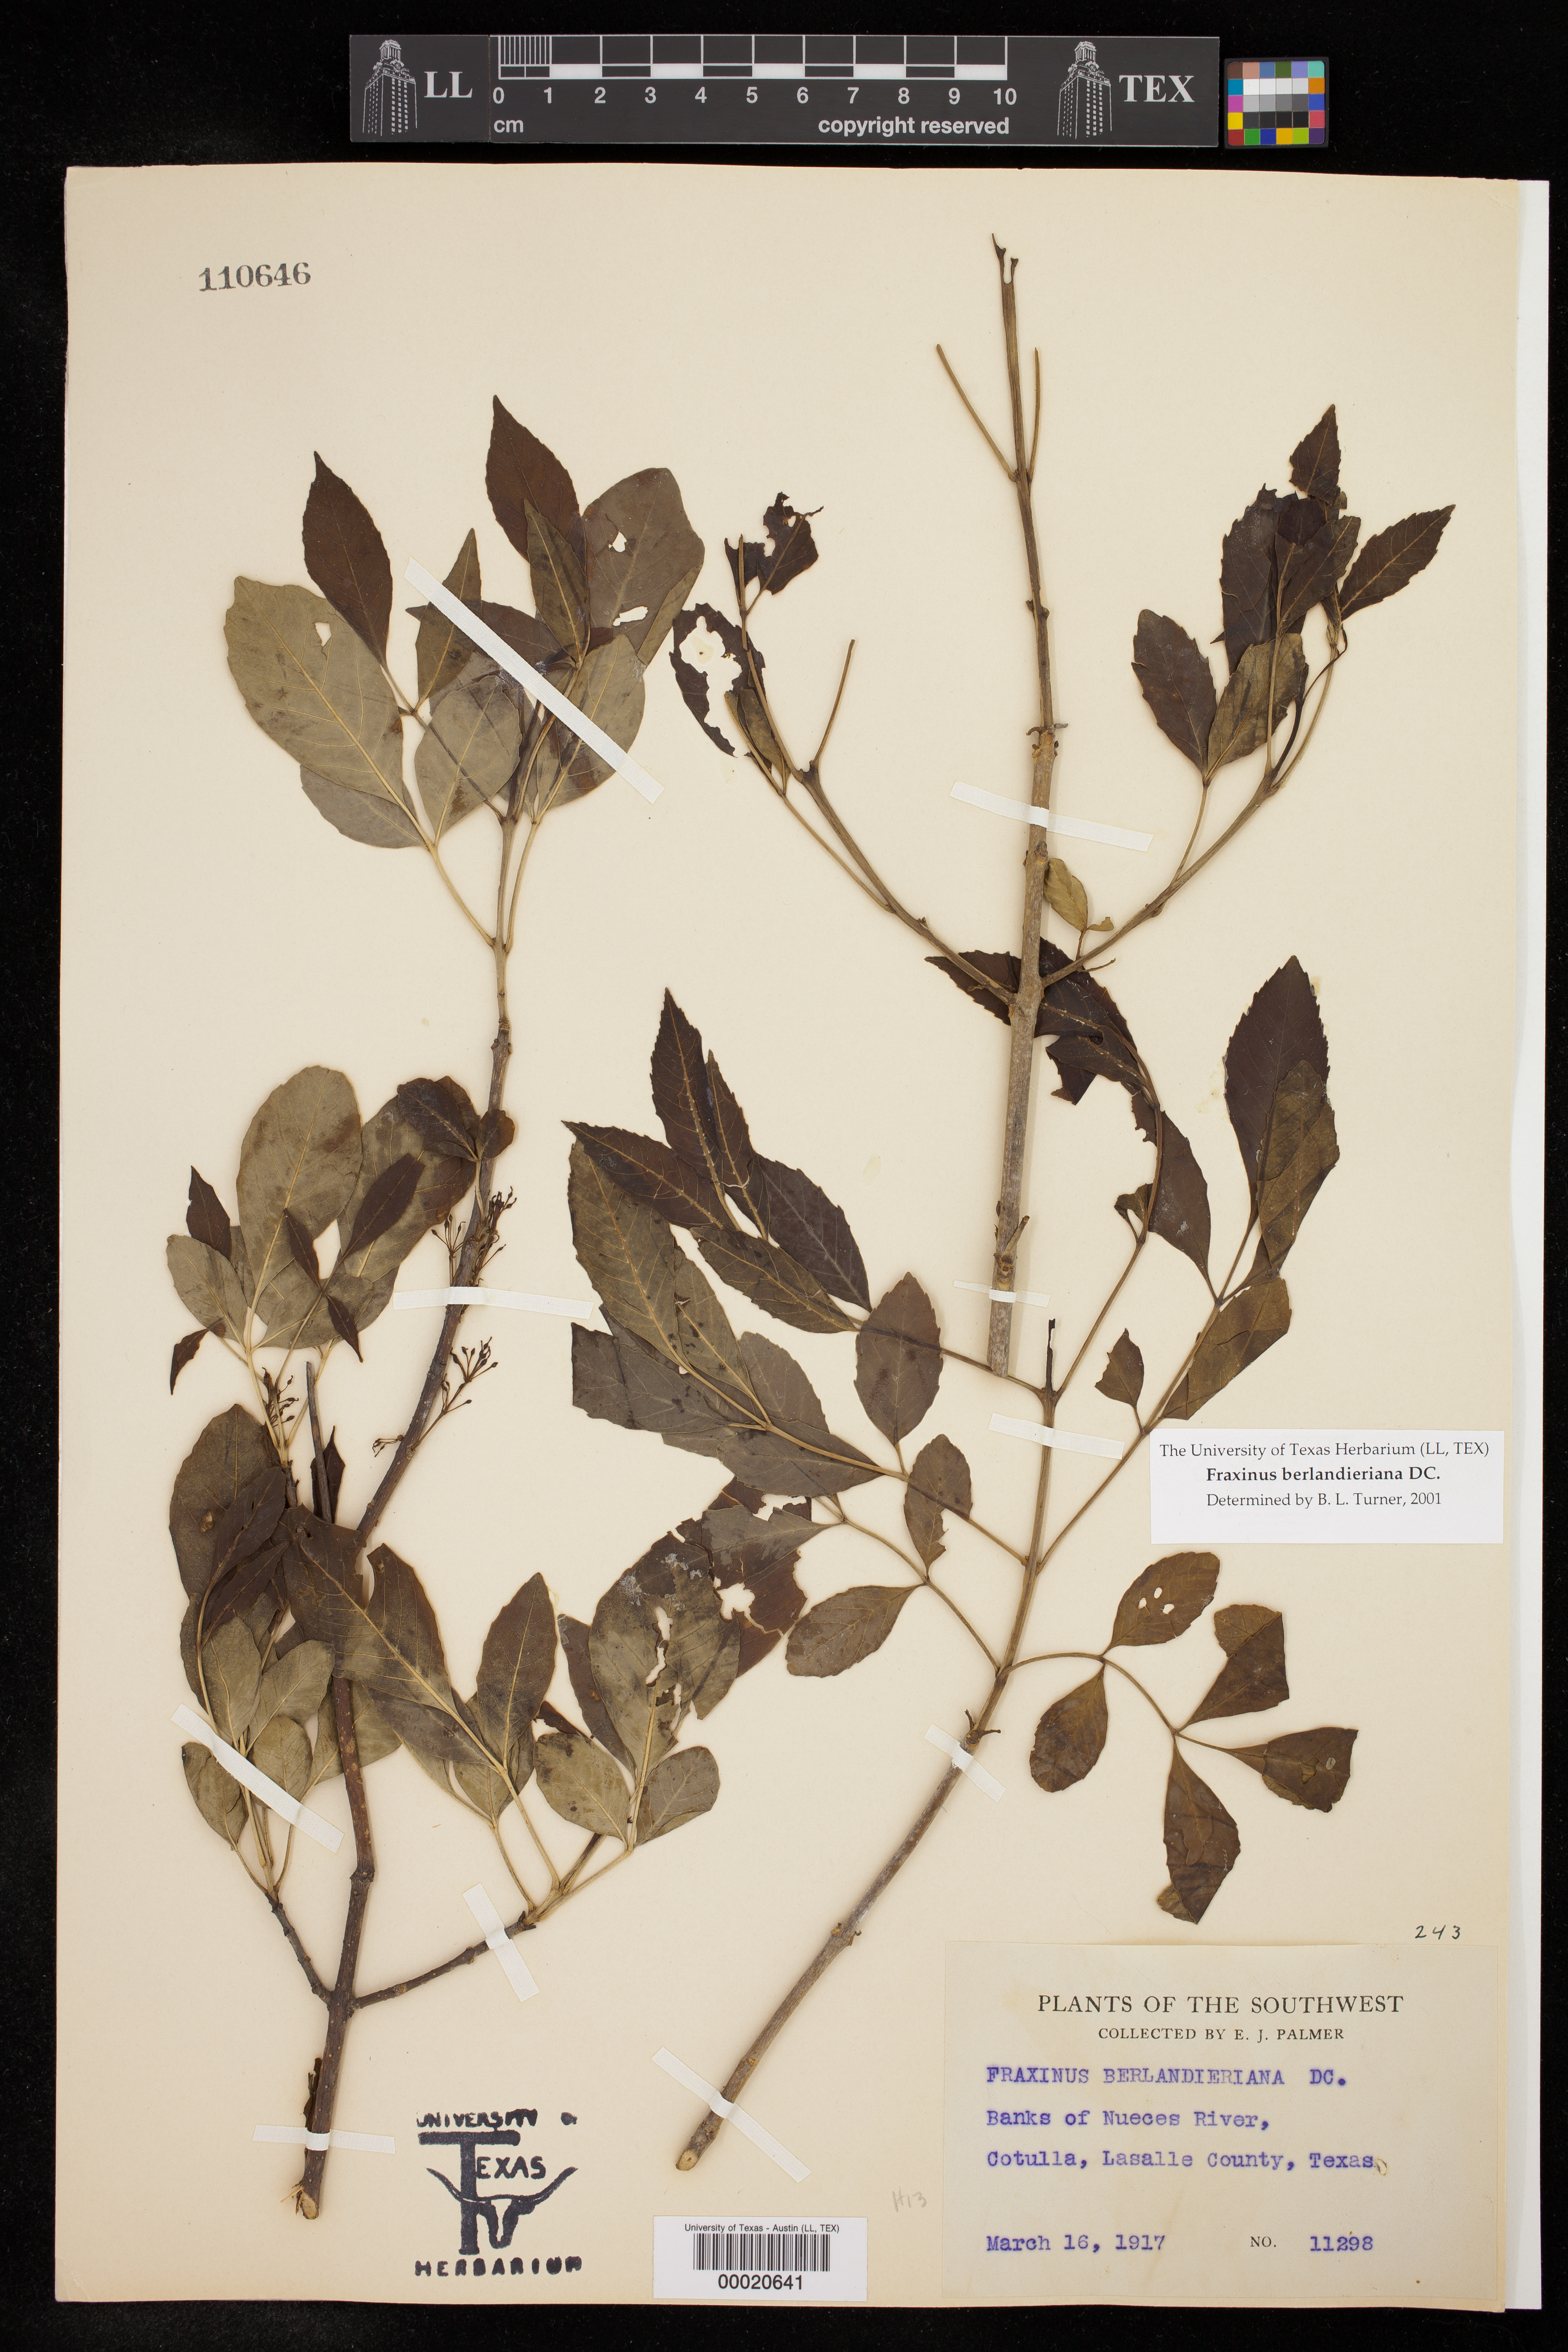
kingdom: Plantae
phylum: Tracheophyta
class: Magnoliopsida
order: Lamiales
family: Oleaceae
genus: Fraxinus
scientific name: Fraxinus berlandieriana
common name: Berlandier ash
